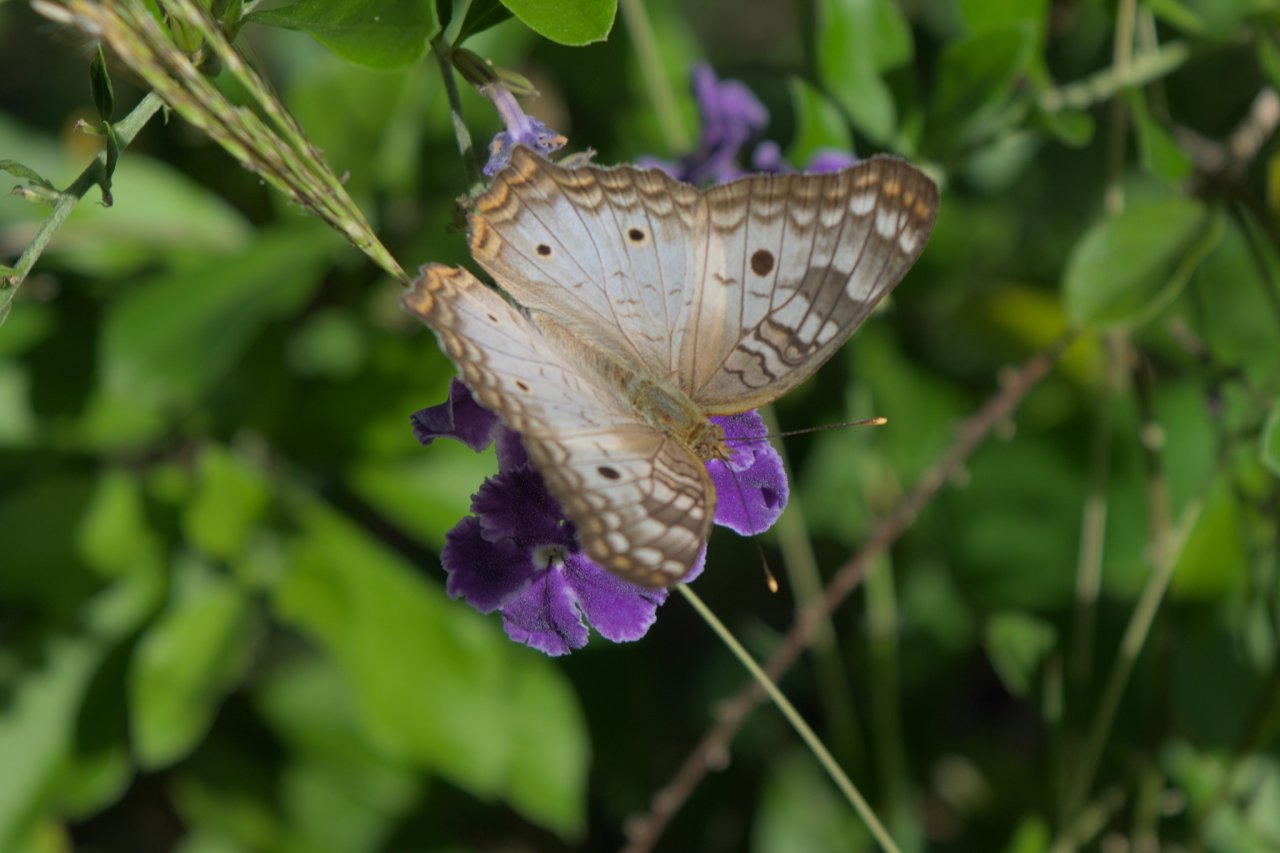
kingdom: Animalia
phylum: Arthropoda
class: Insecta
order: Lepidoptera
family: Nymphalidae
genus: Anartia
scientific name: Anartia jatrophae
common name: White Peacock
